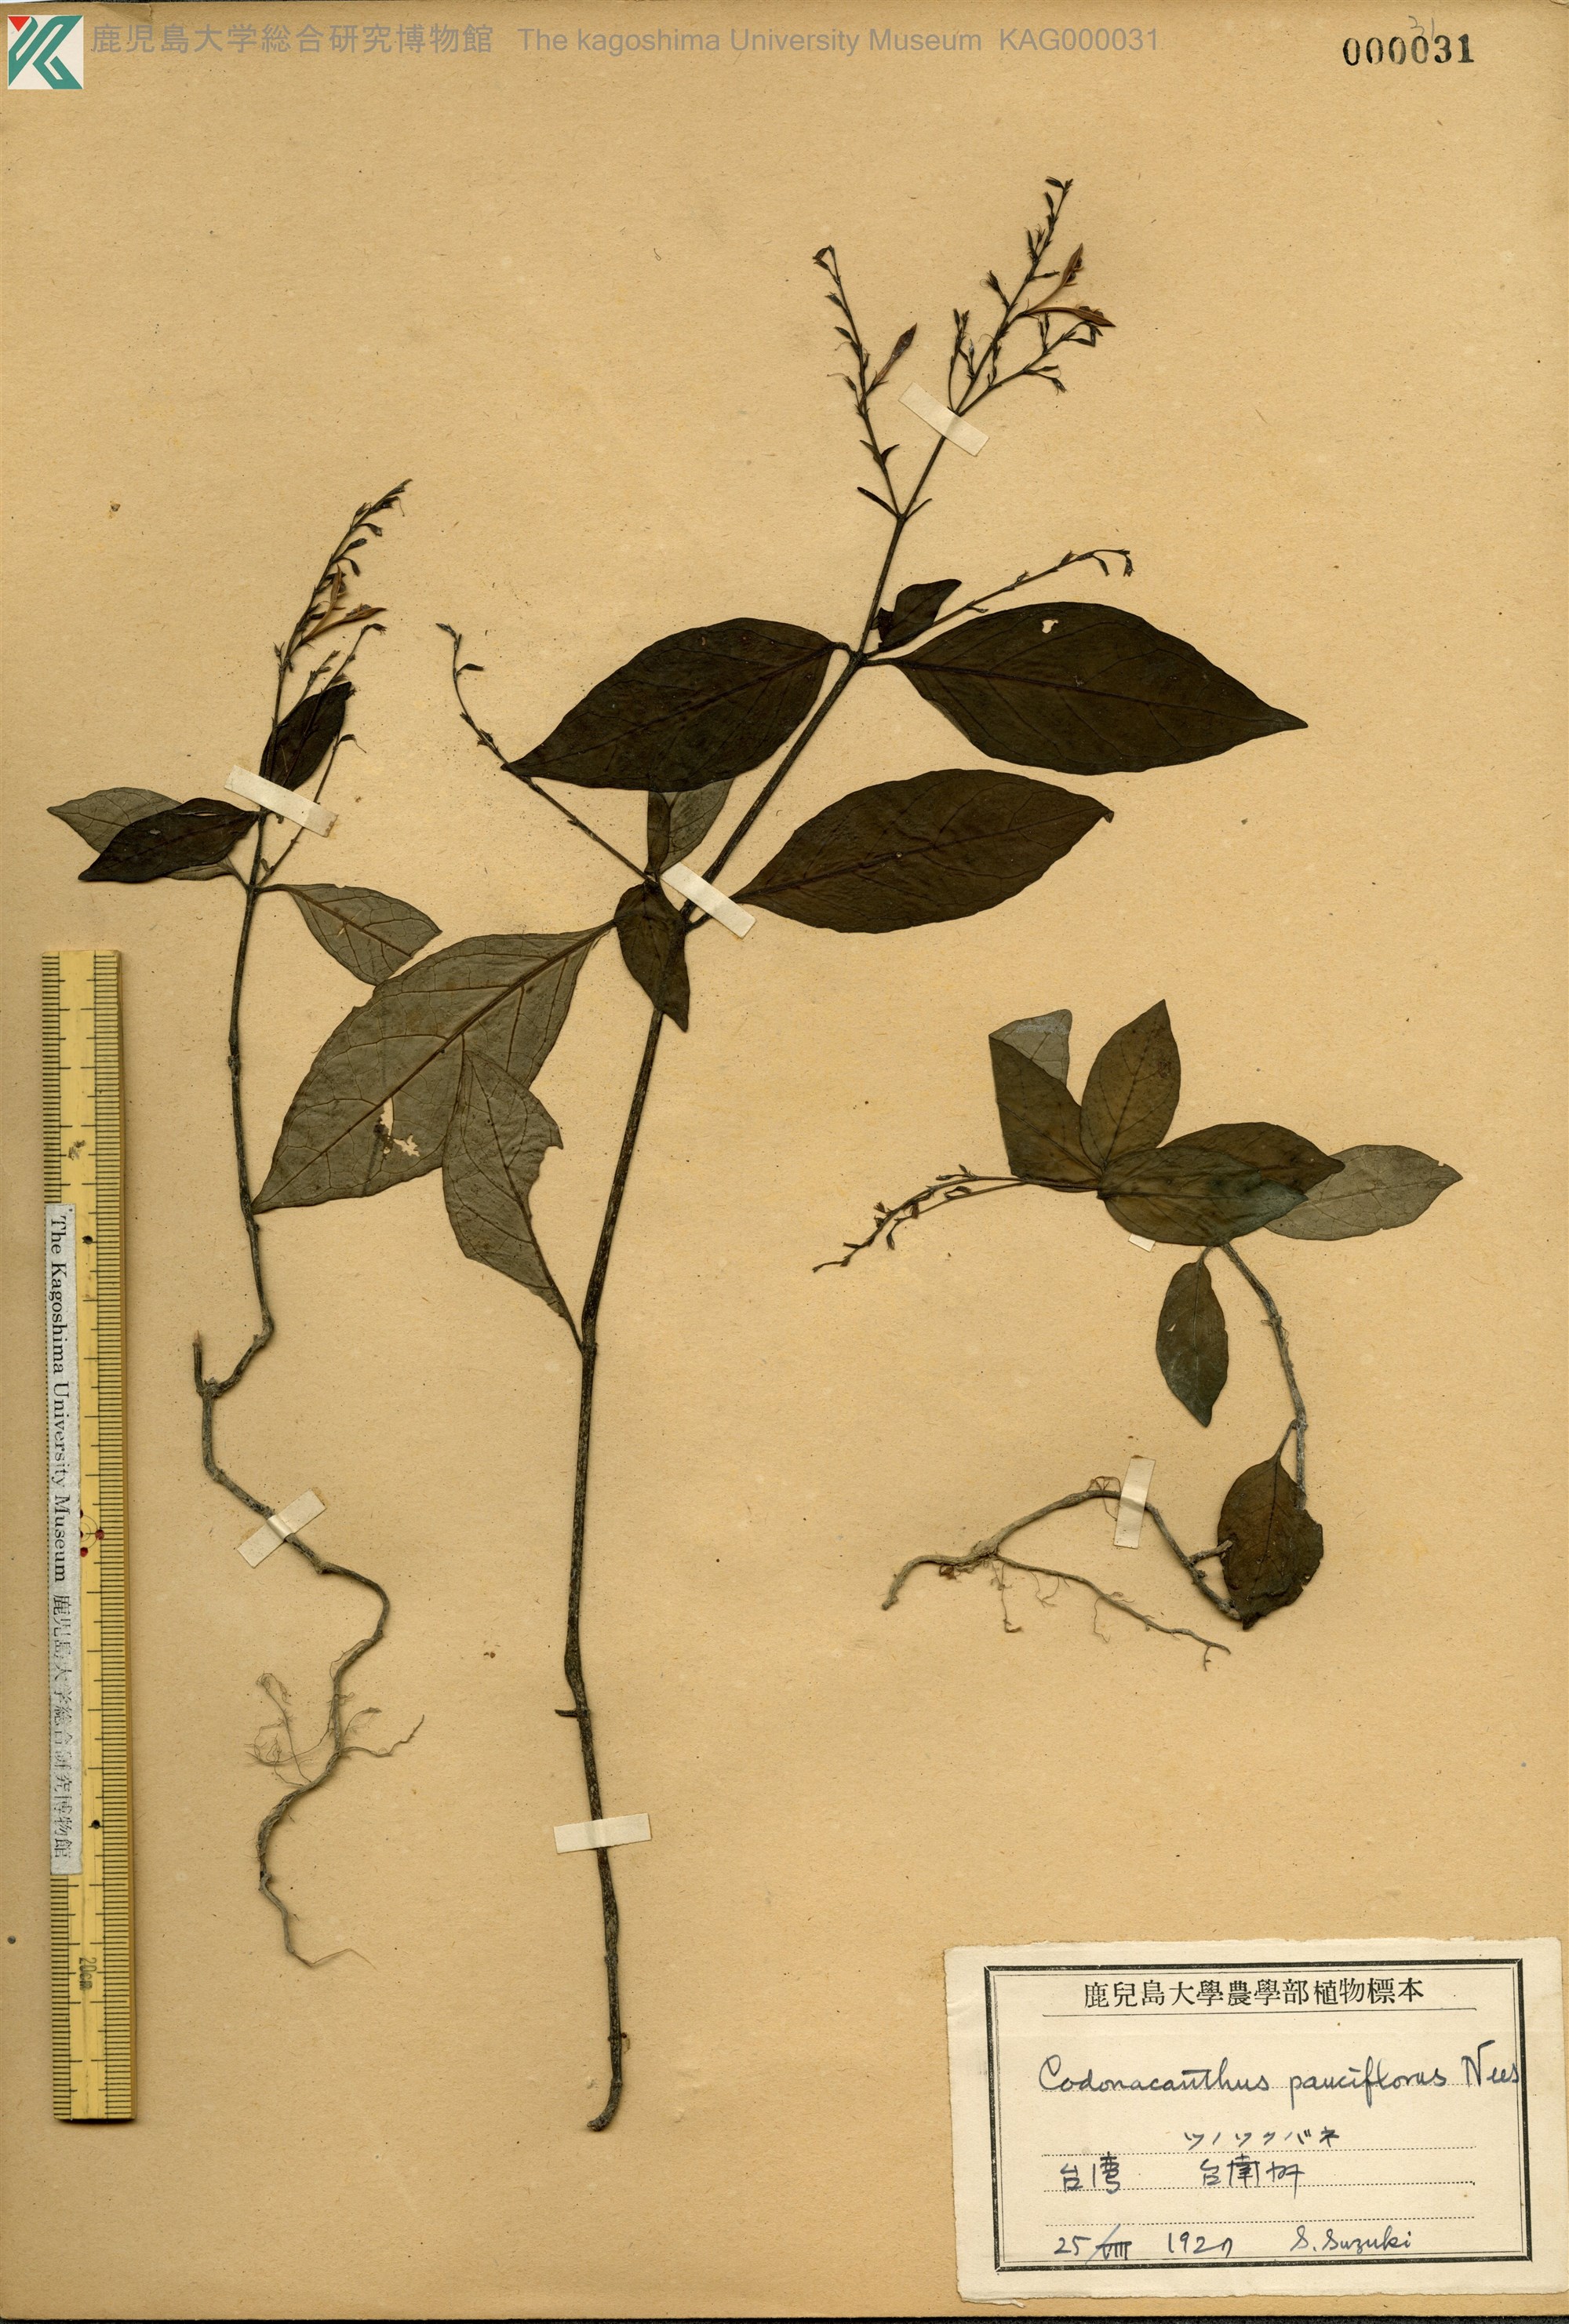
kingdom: Plantae
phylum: Tracheophyta
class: Magnoliopsida
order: Lamiales
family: Acanthaceae
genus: Codonacanthus
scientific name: Codonacanthus pauciflorus
